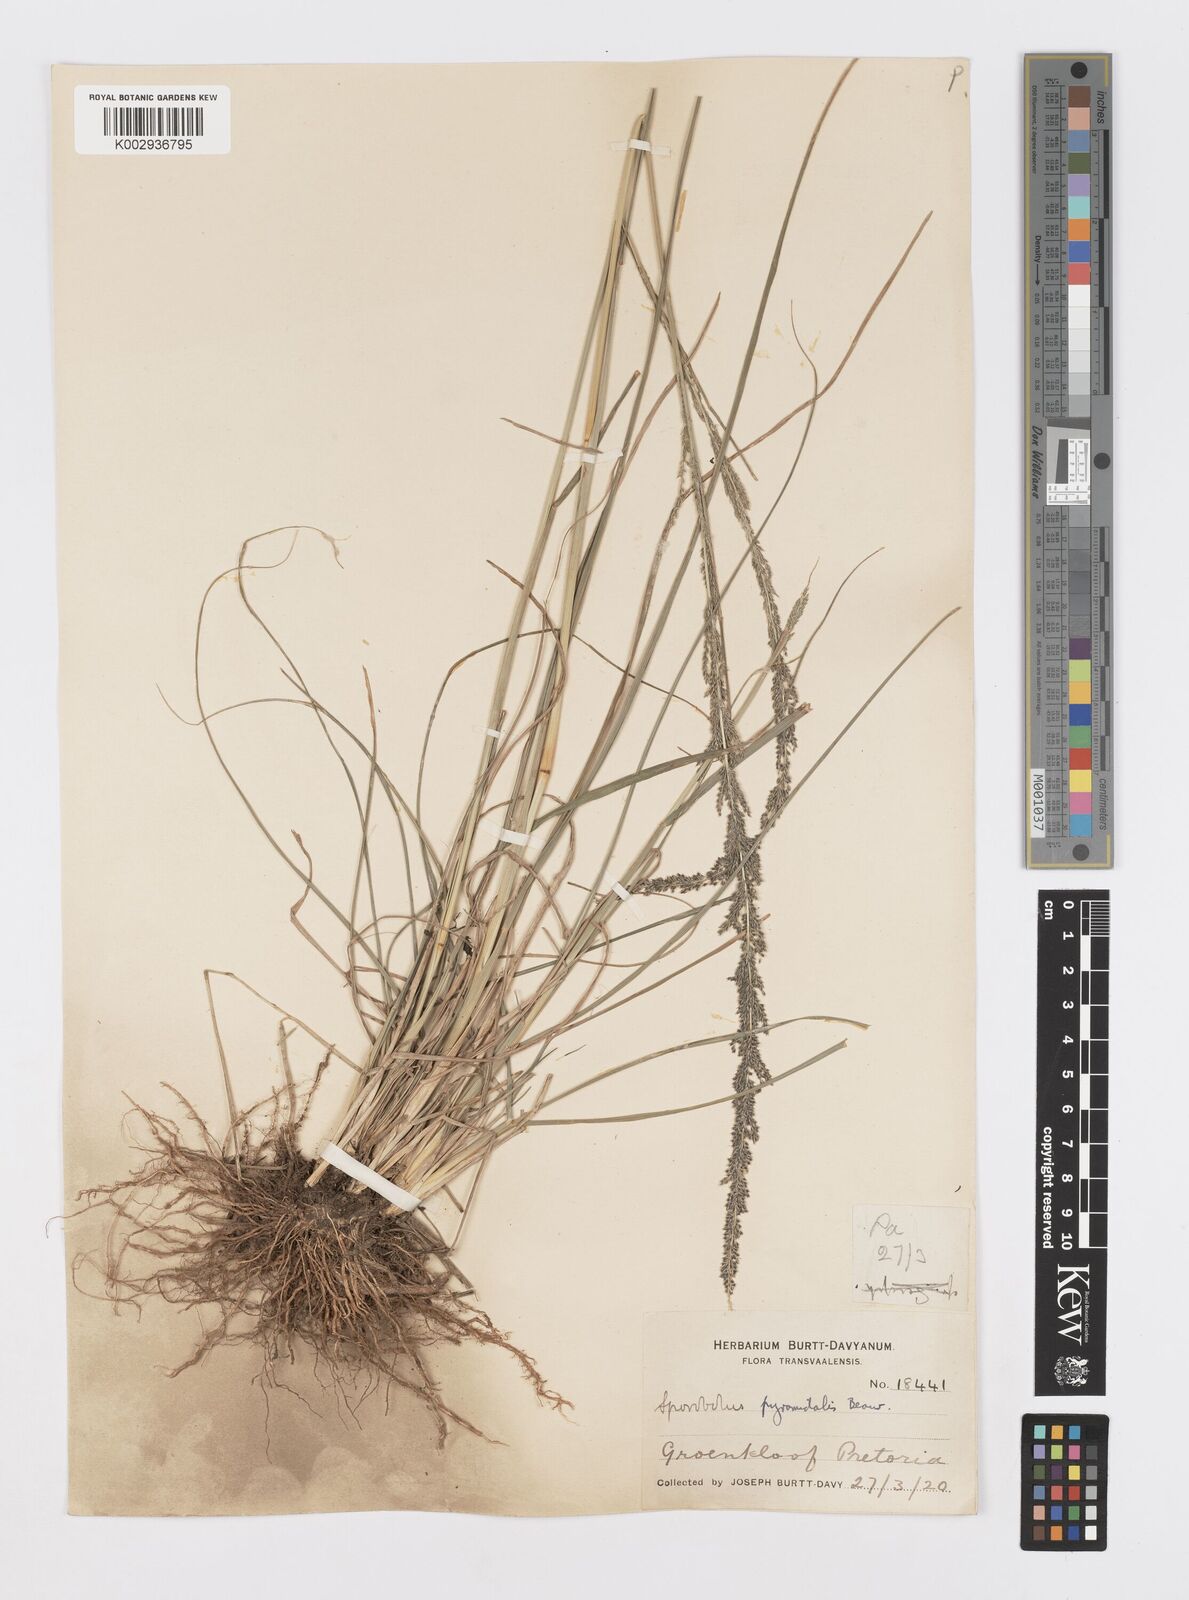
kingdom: Plantae
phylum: Tracheophyta
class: Liliopsida
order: Poales
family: Poaceae
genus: Sporobolus
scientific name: Sporobolus pyramidalis
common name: West indian dropseed
